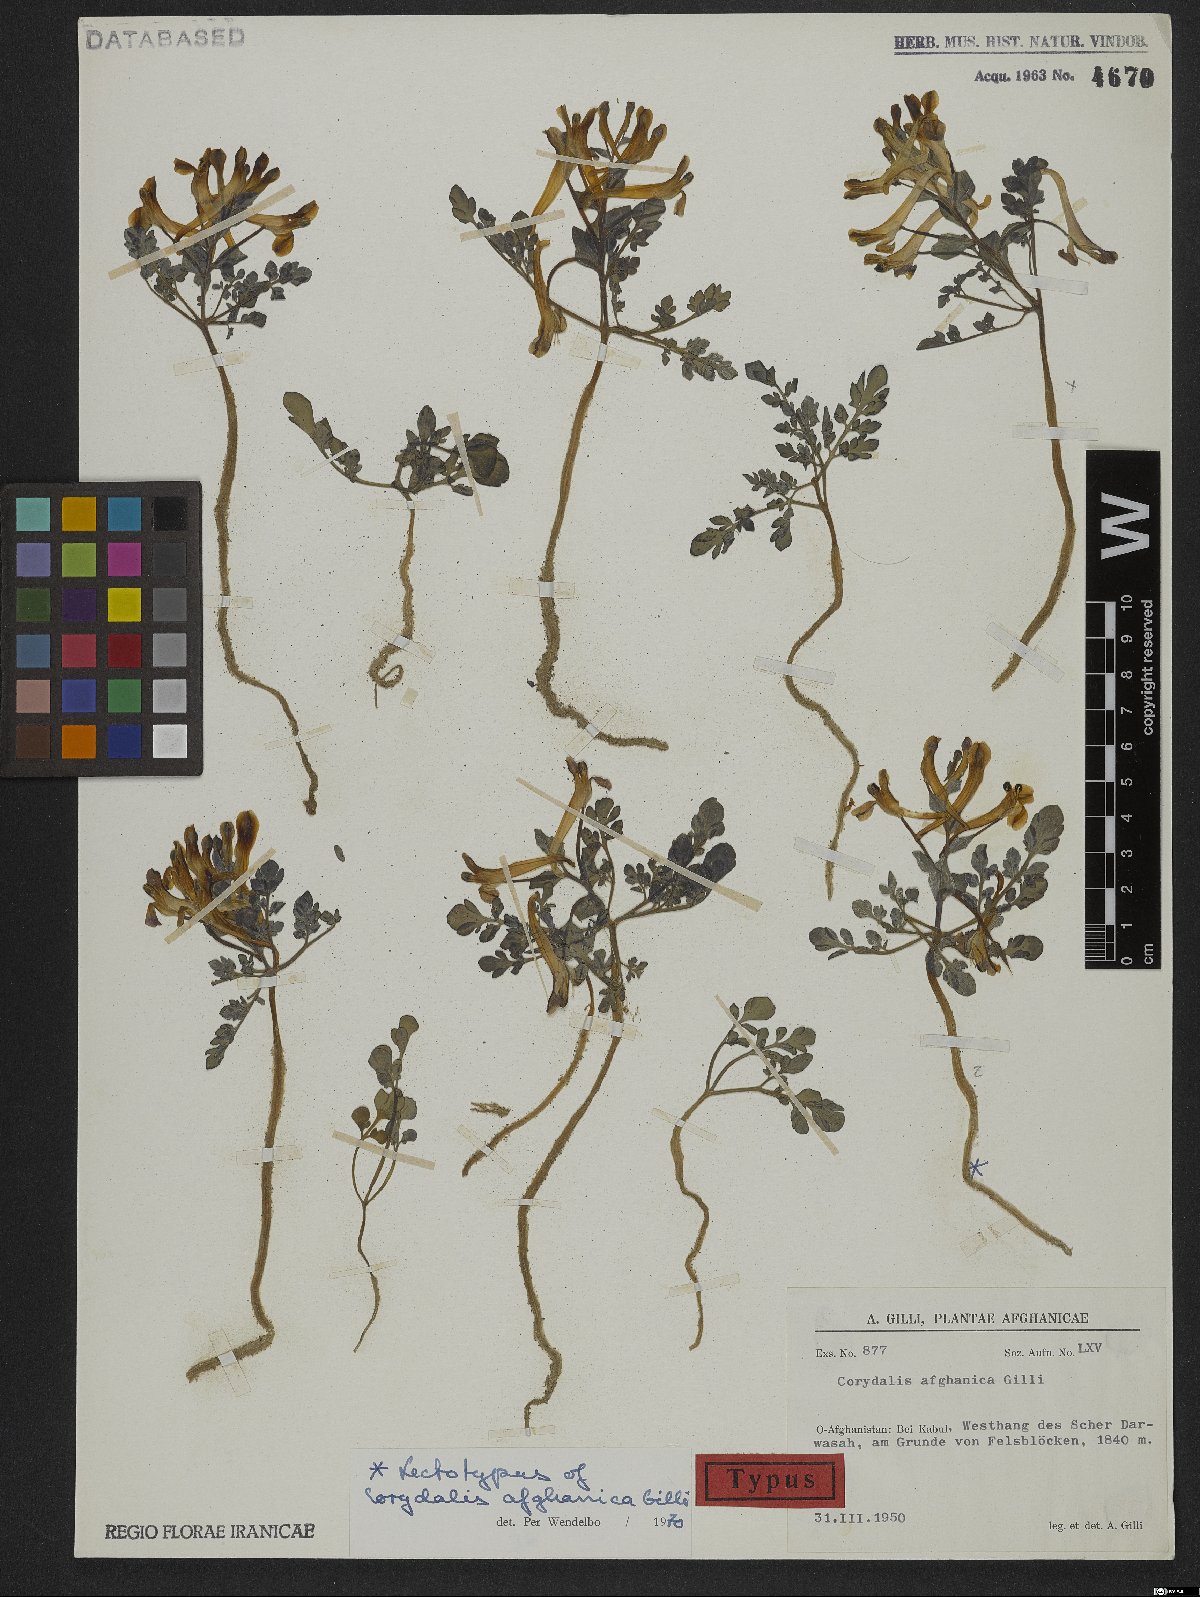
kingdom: Plantae
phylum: Tracheophyta
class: Magnoliopsida
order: Ranunculales
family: Papaveraceae
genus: Corydalis
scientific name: Corydalis afghanica
